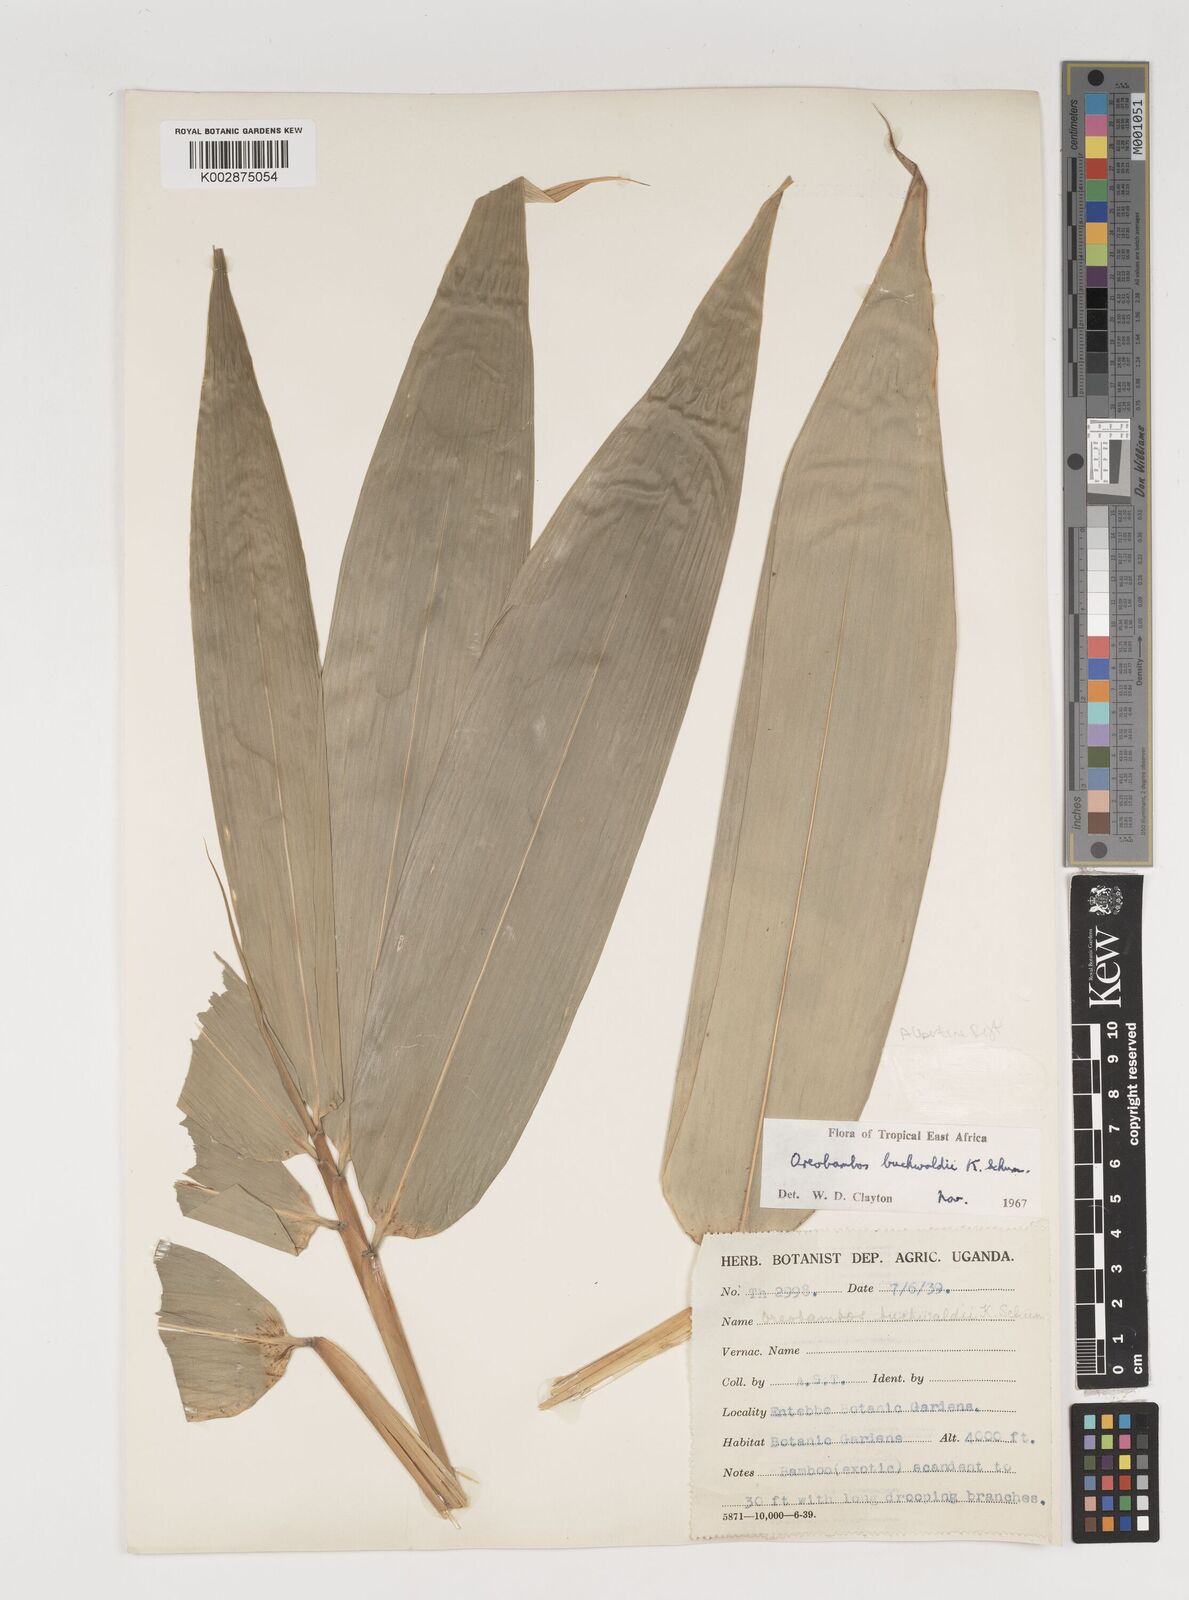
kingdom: Plantae
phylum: Tracheophyta
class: Liliopsida
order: Poales
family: Poaceae
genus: Oreobambos
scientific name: Oreobambos
